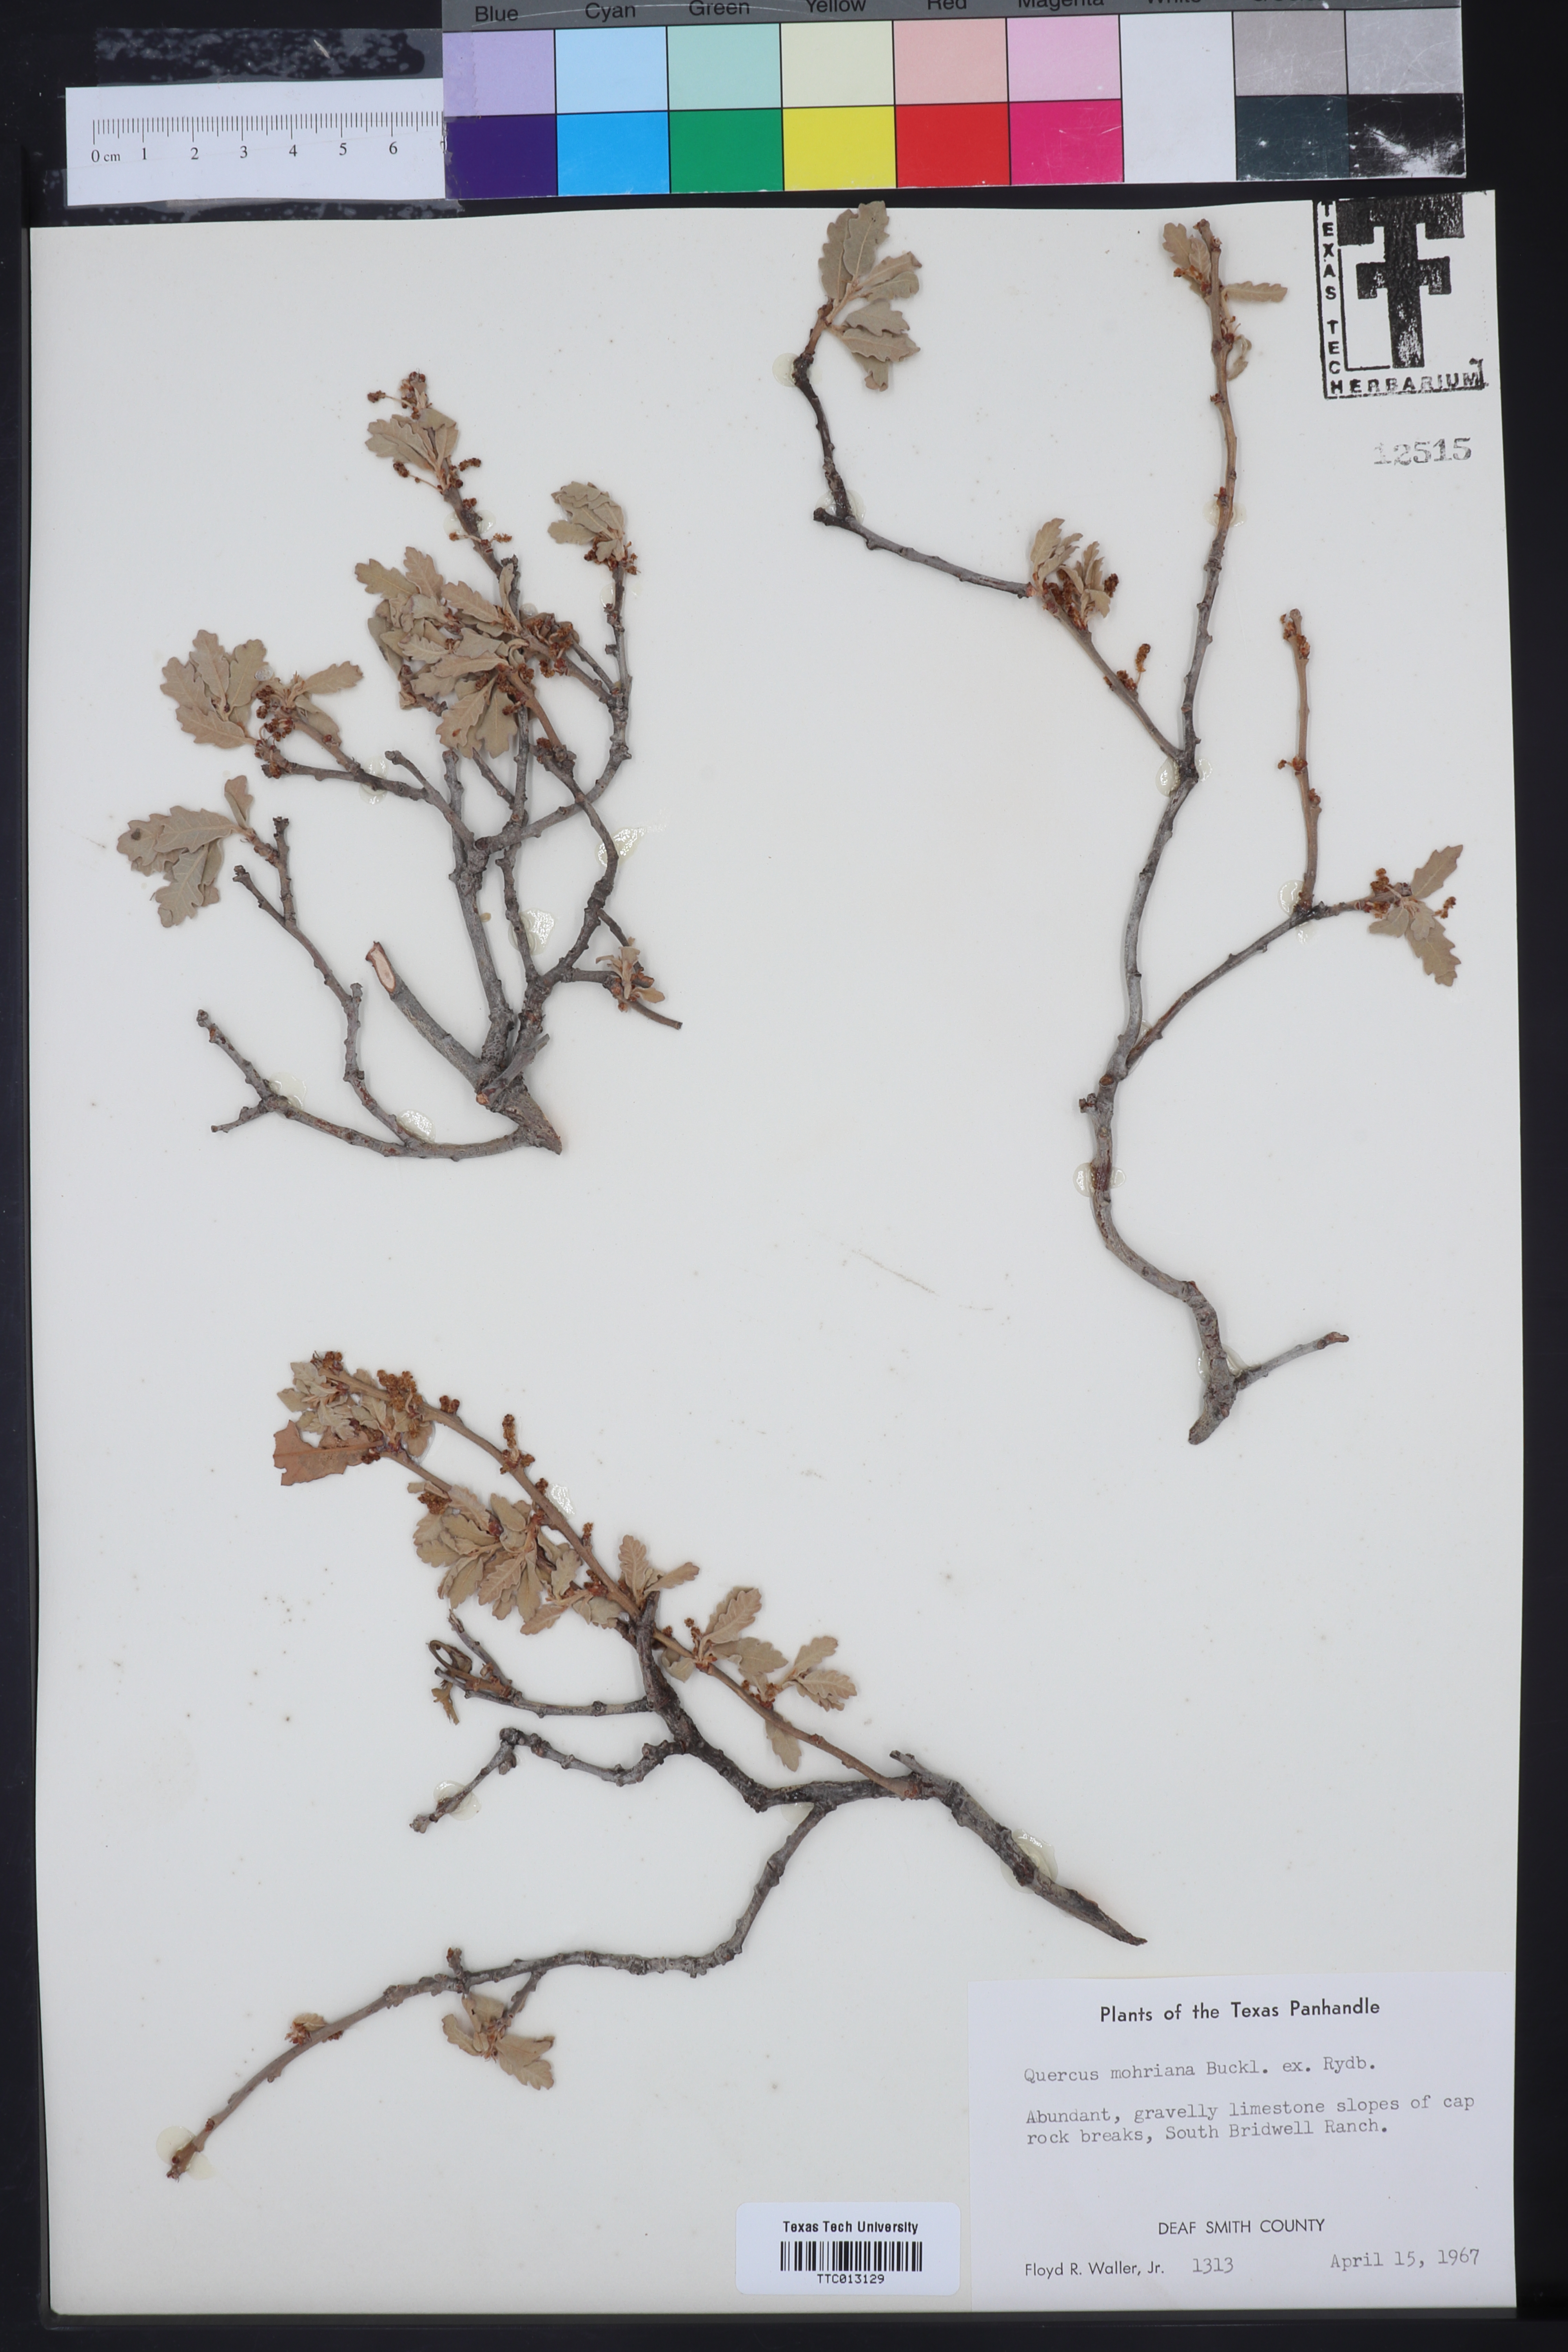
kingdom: Plantae
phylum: Tracheophyta
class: Magnoliopsida
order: Fagales
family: Fagaceae
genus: Quercus
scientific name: Quercus mohriana
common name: Mohr oak
